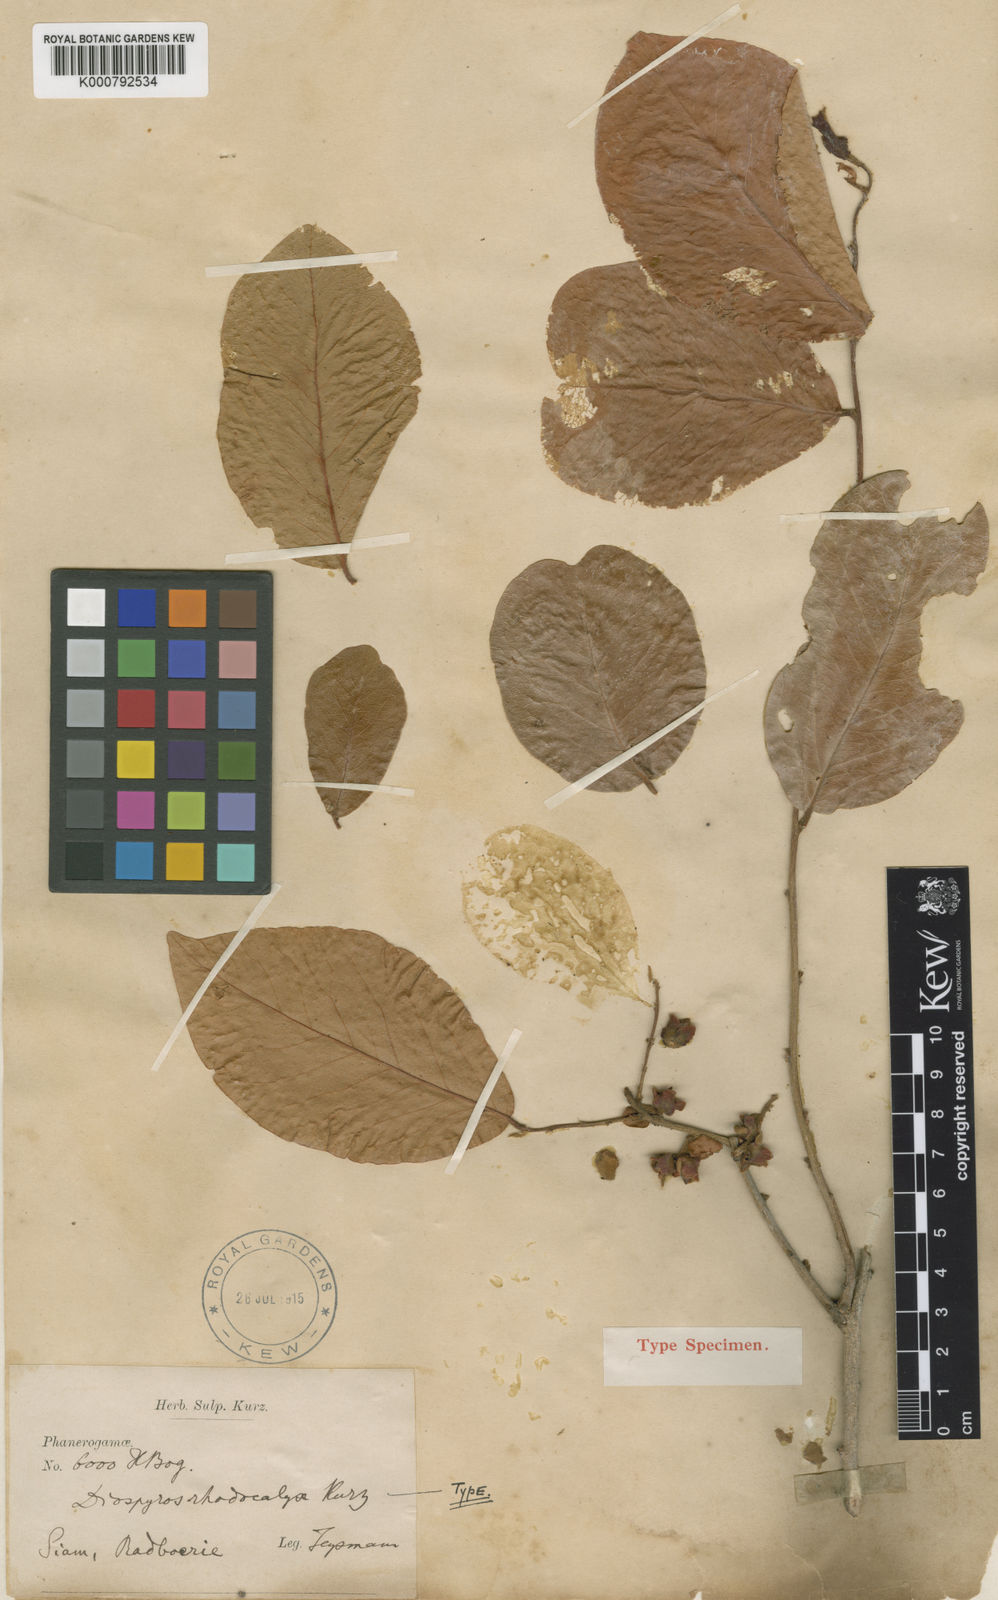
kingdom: Plantae
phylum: Tracheophyta
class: Magnoliopsida
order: Ericales
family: Ebenaceae
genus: Diospyros
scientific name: Diospyros rhodocalyx
